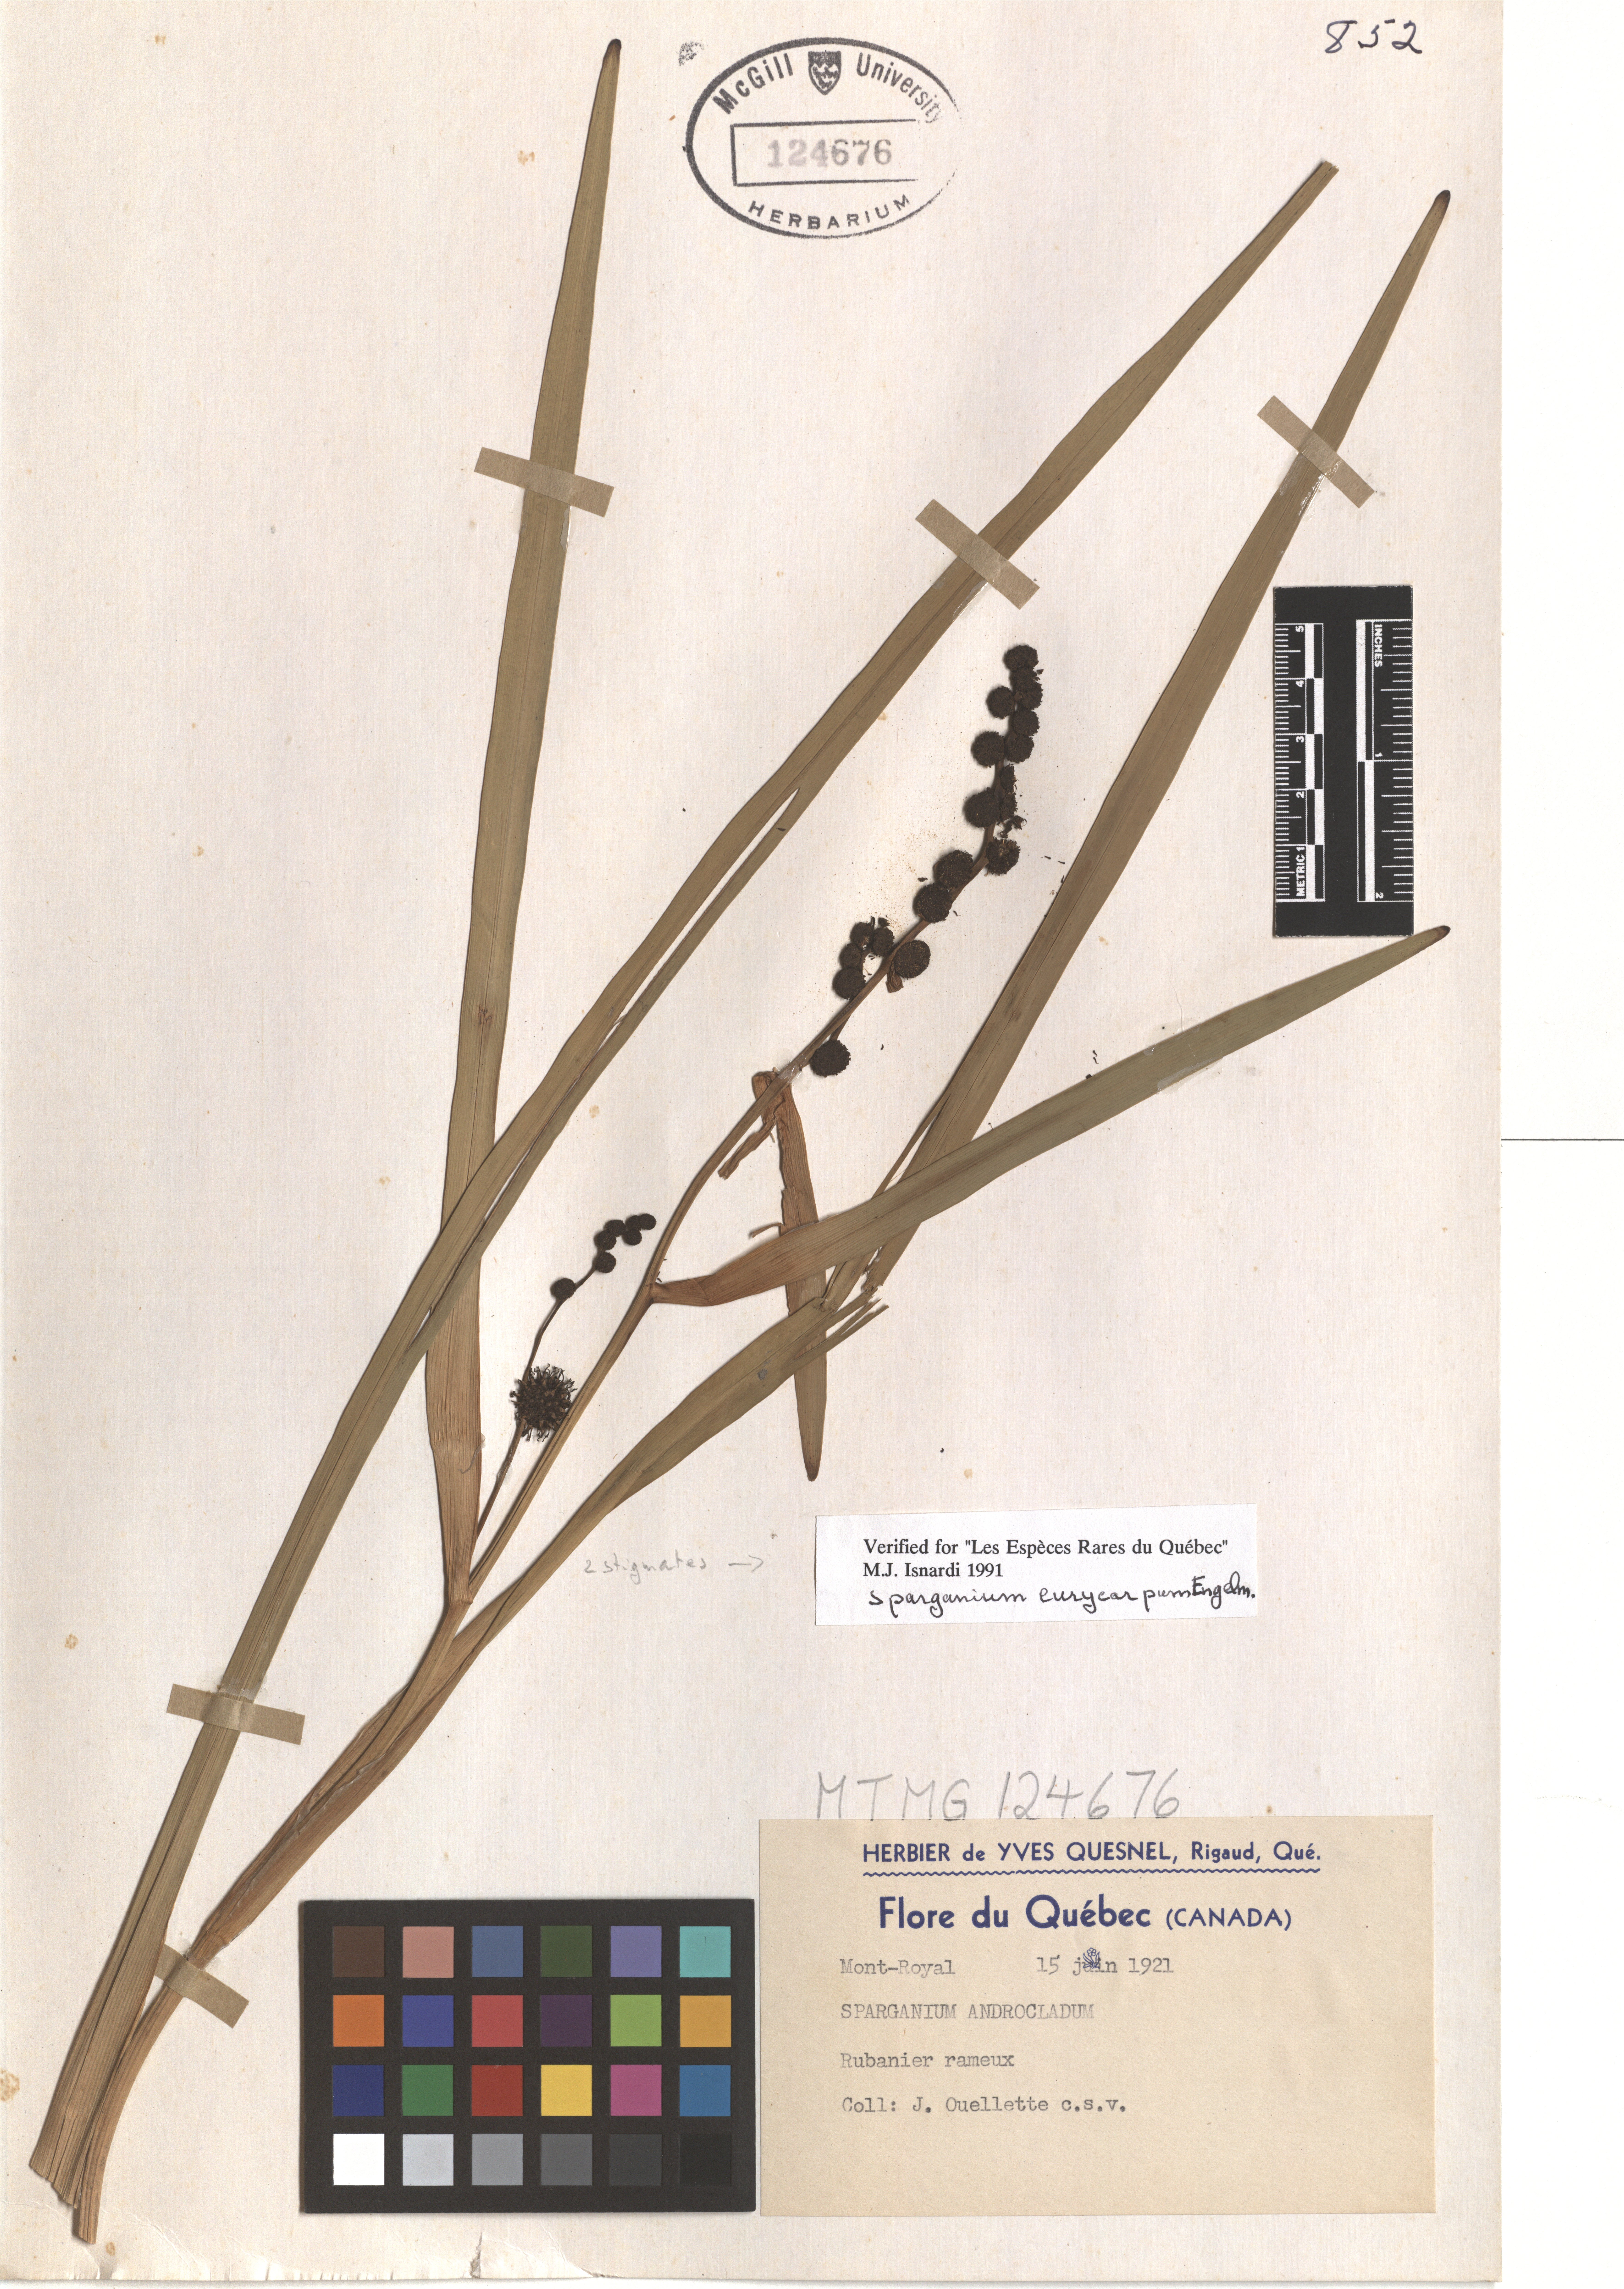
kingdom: Plantae
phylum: Tracheophyta
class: Liliopsida
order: Poales
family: Typhaceae
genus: Sparganium
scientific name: Sparganium eurycarpum
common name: Broad-fruited burreed
